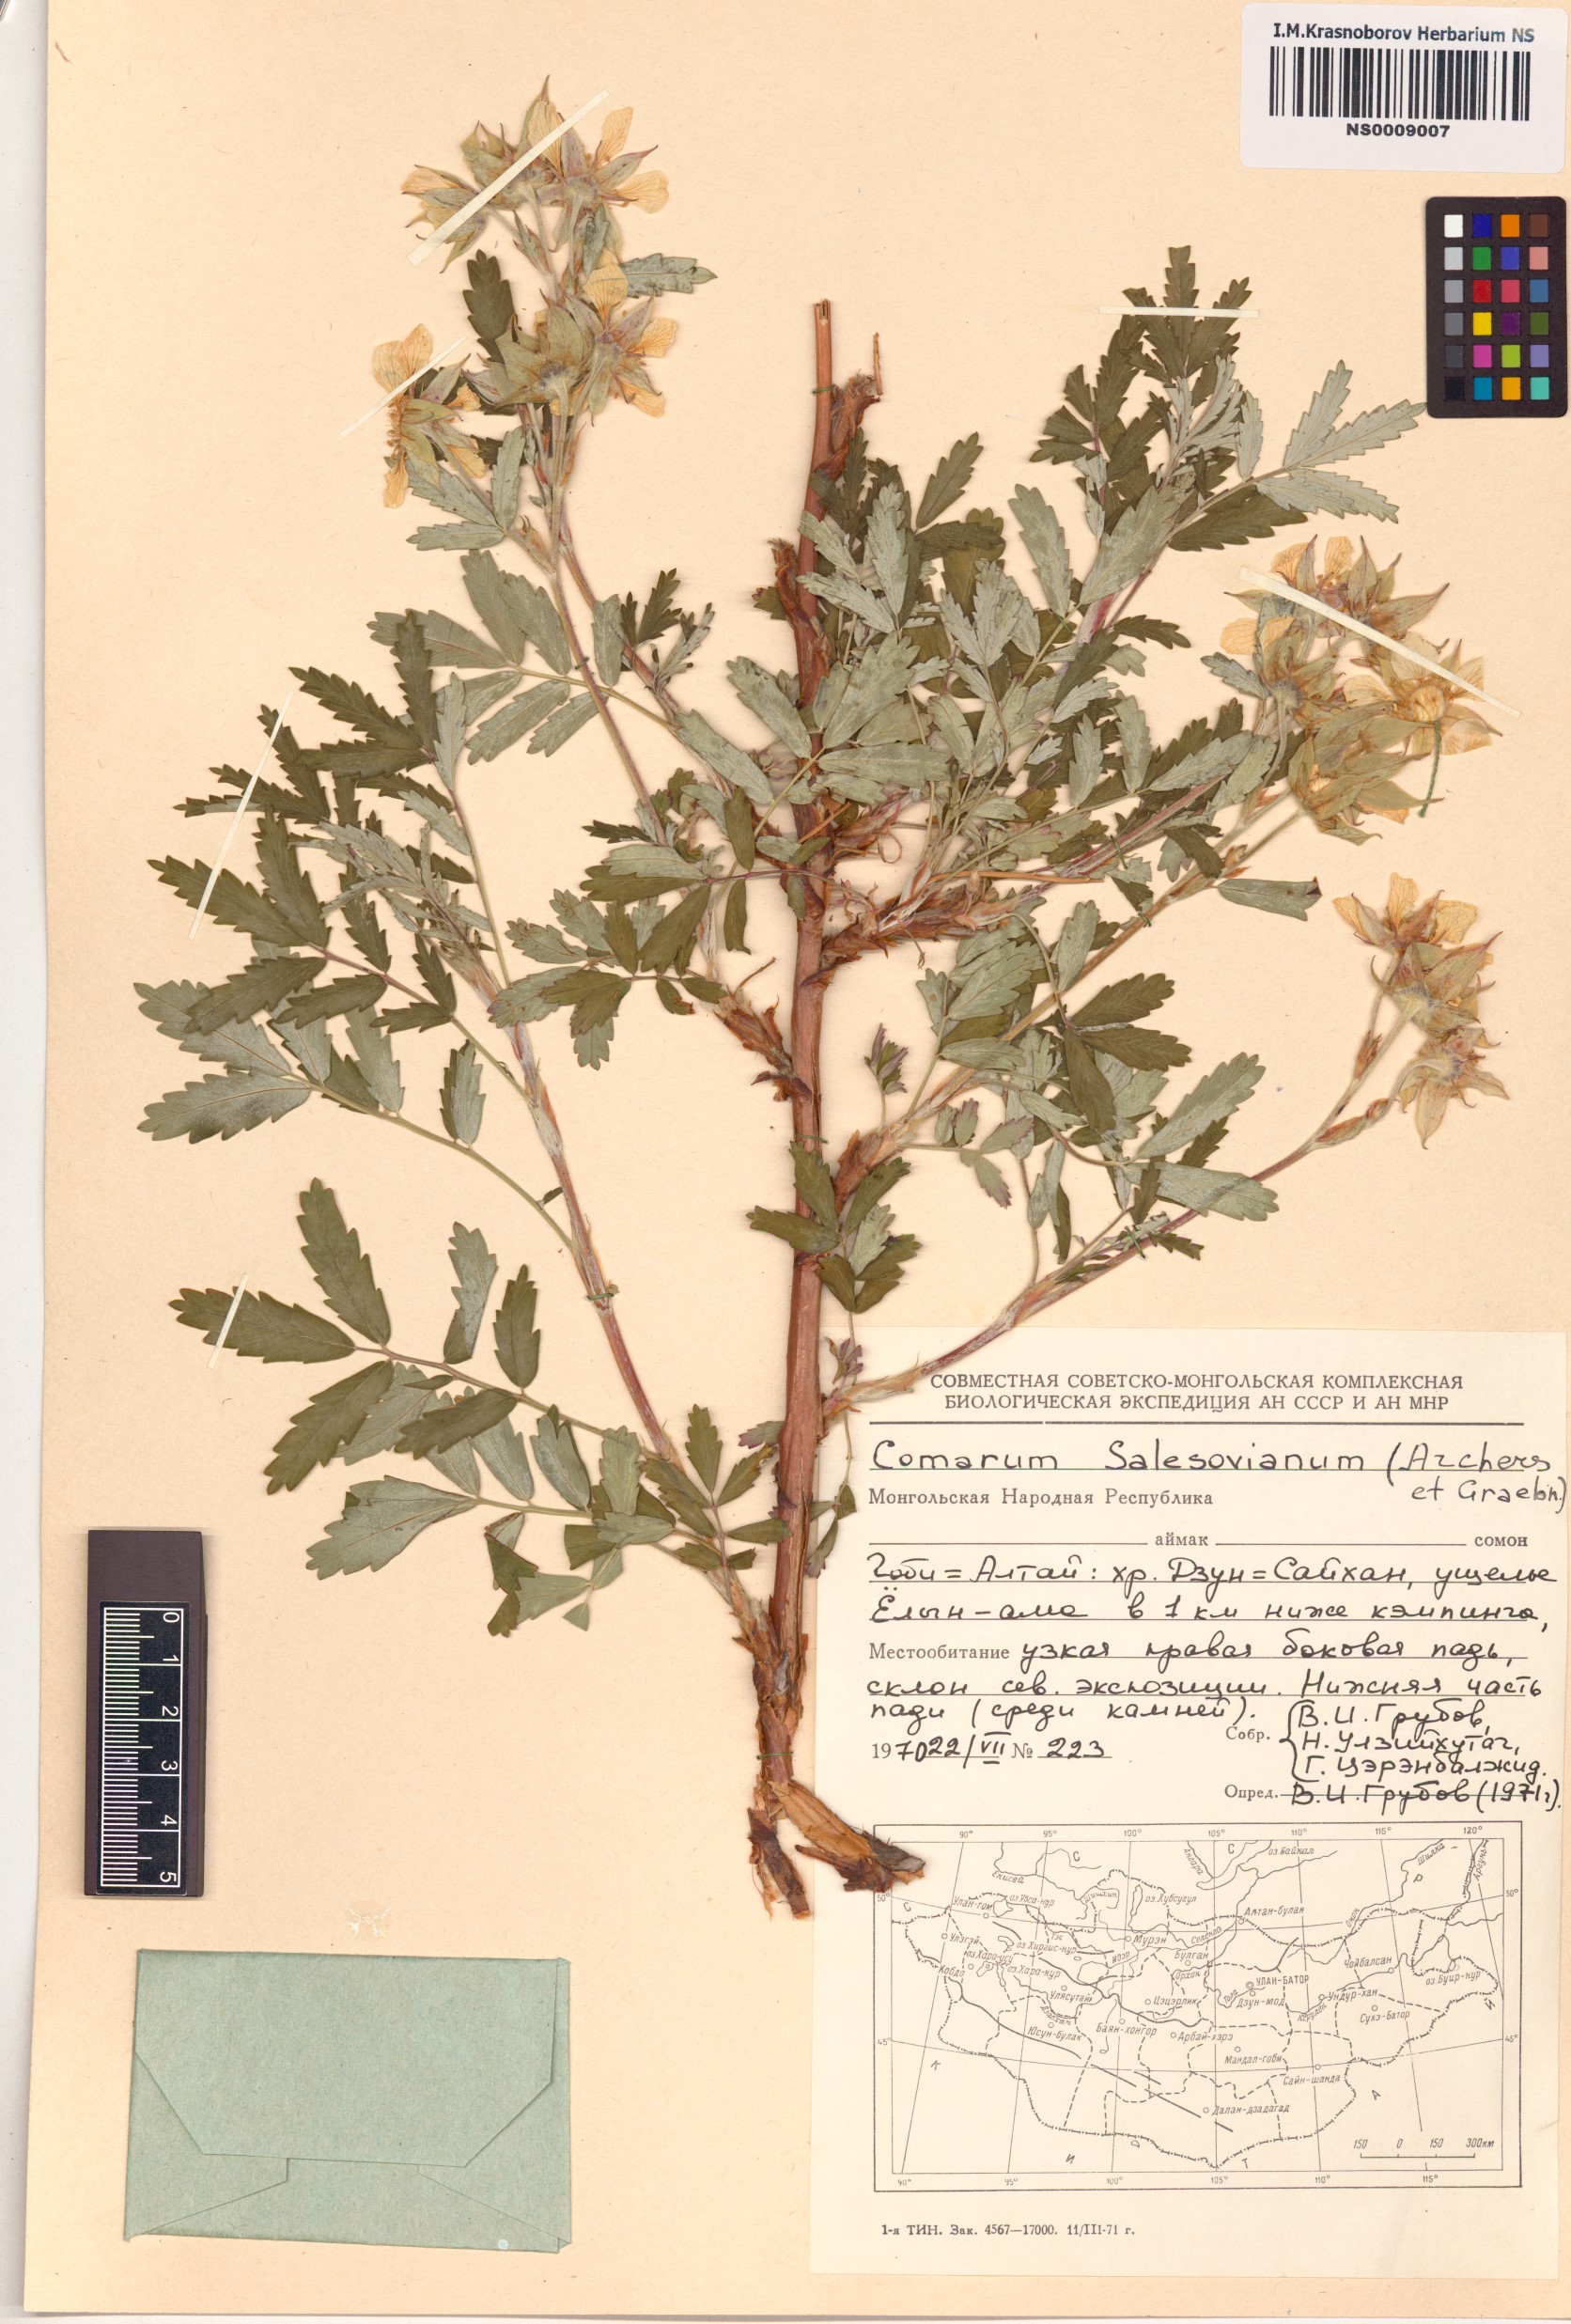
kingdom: Plantae
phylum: Tracheophyta
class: Magnoliopsida
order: Rosales
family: Rosaceae
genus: Farinopsis
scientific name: Farinopsis salesoviana
